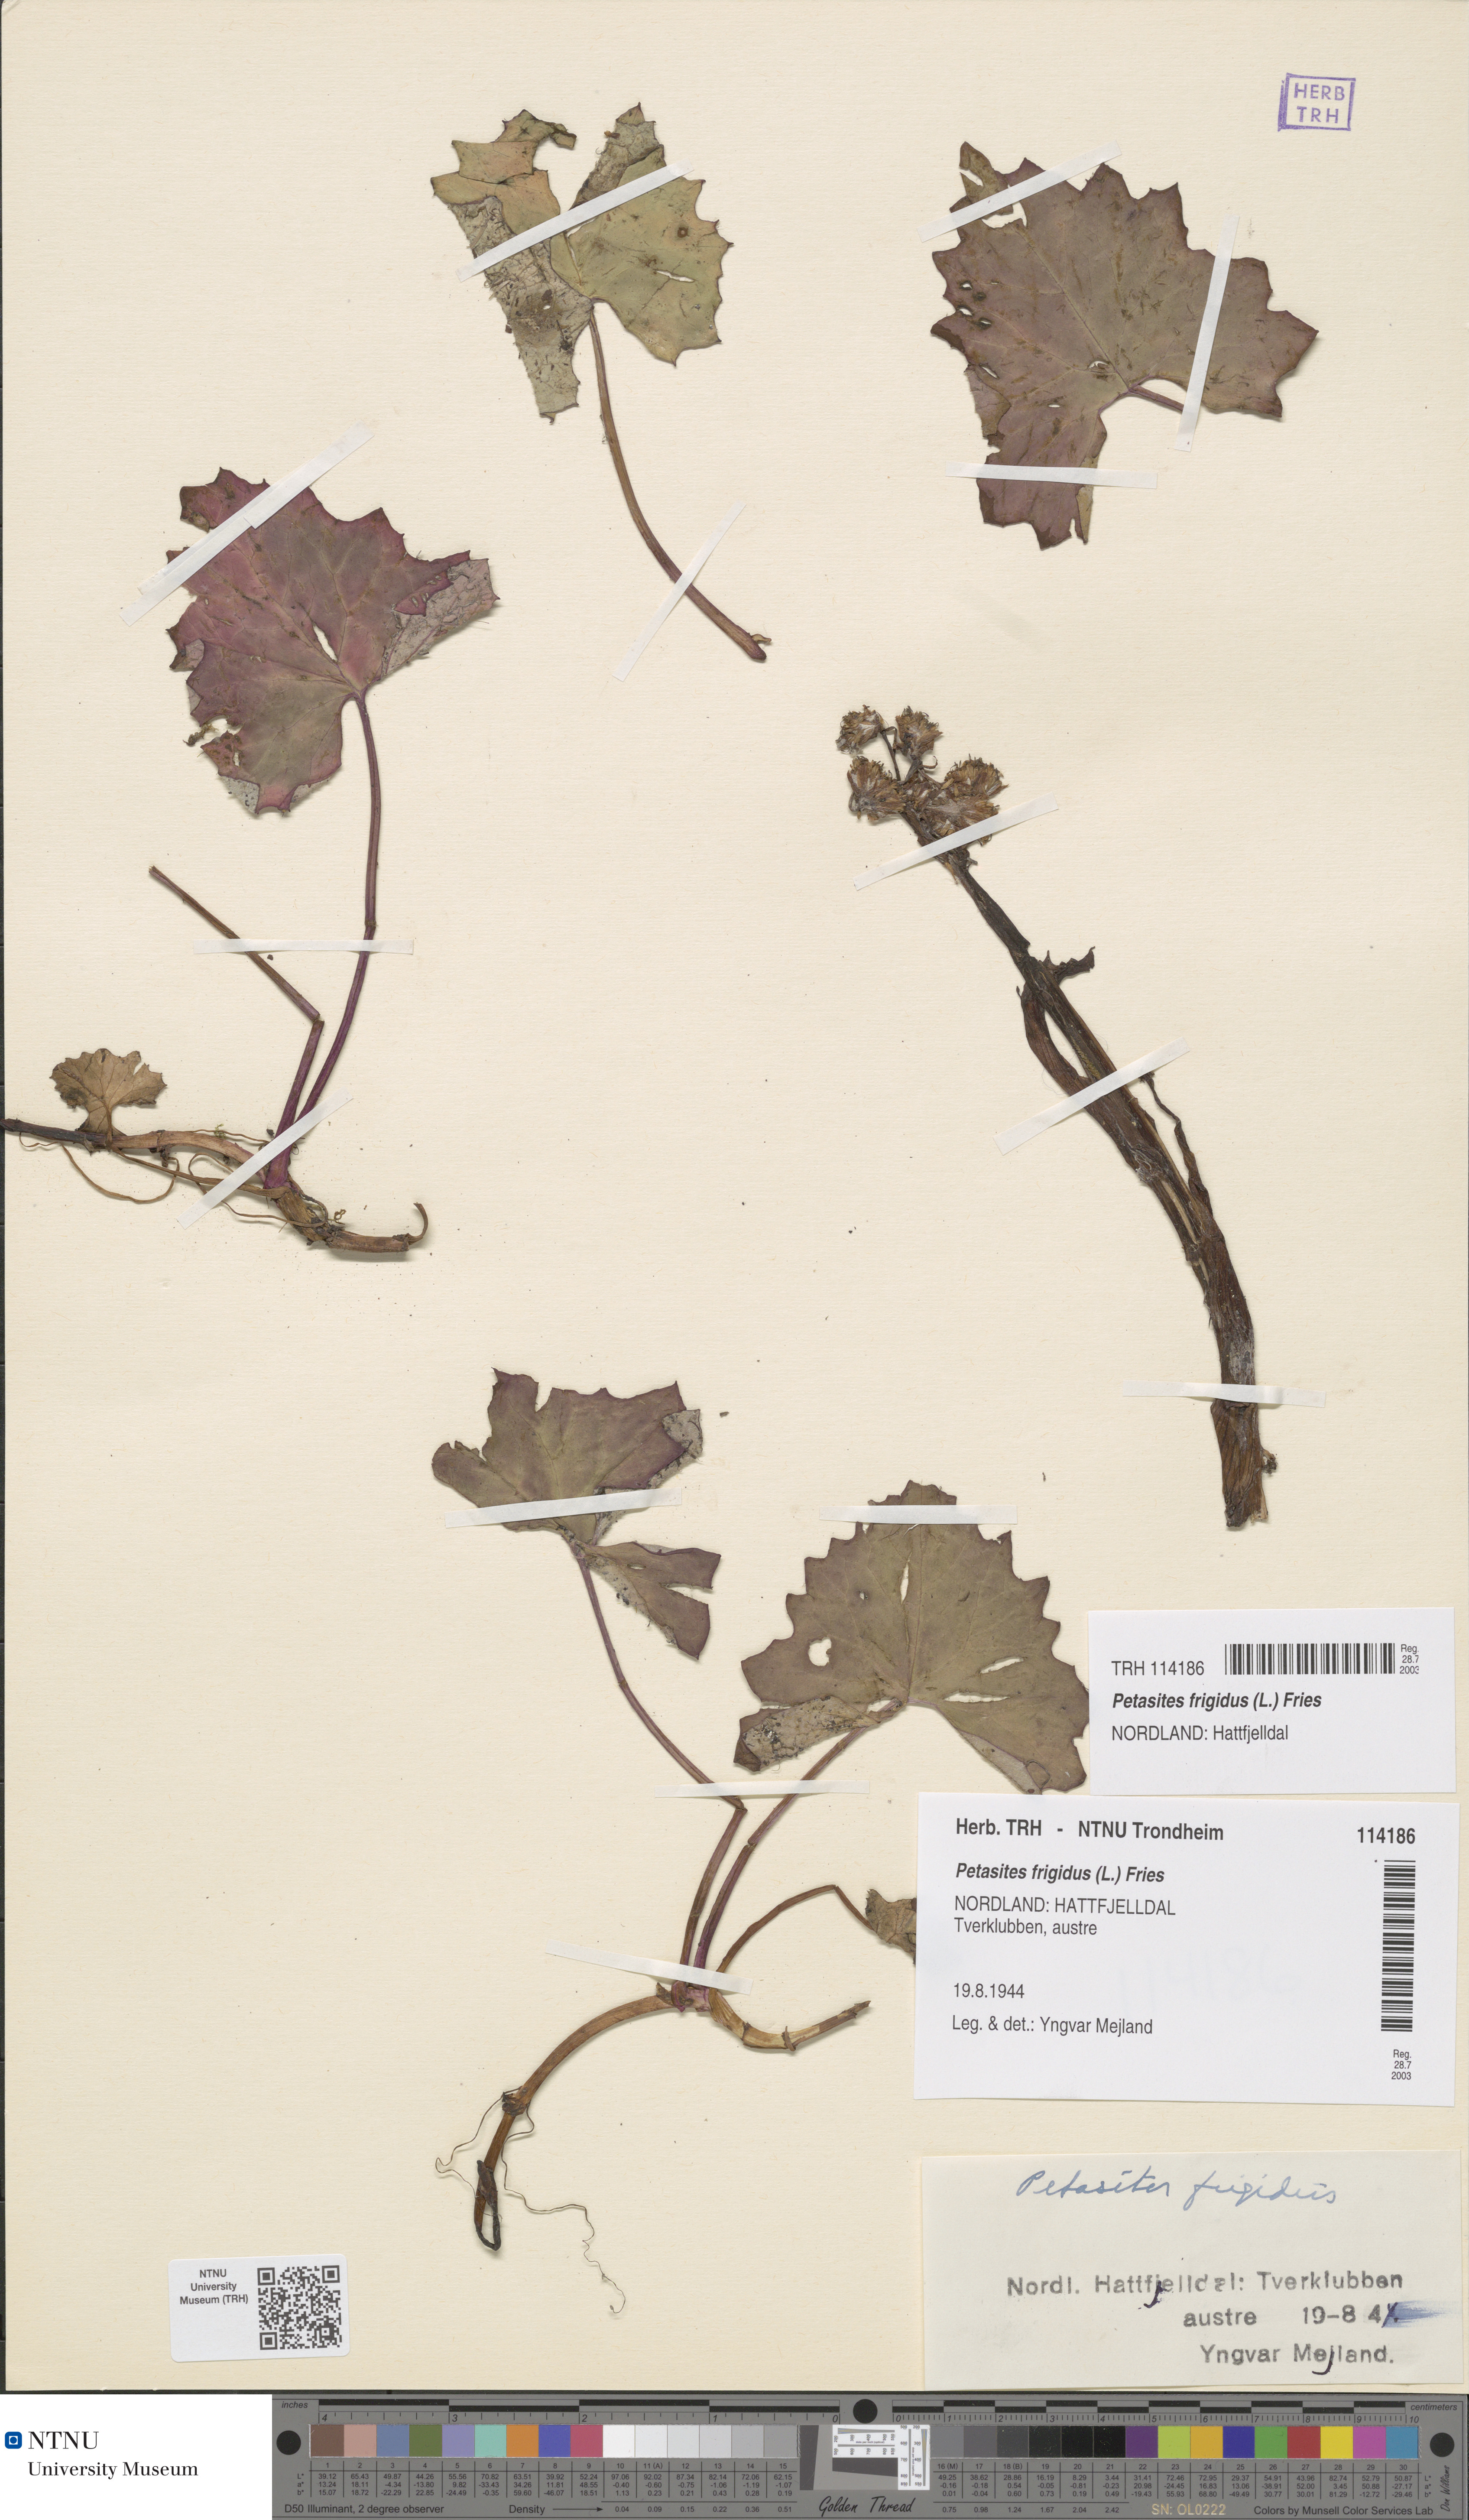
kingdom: Plantae
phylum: Tracheophyta
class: Magnoliopsida
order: Asterales
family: Asteraceae
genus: Petasites
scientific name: Petasites frigidus
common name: Arctic butterbur
